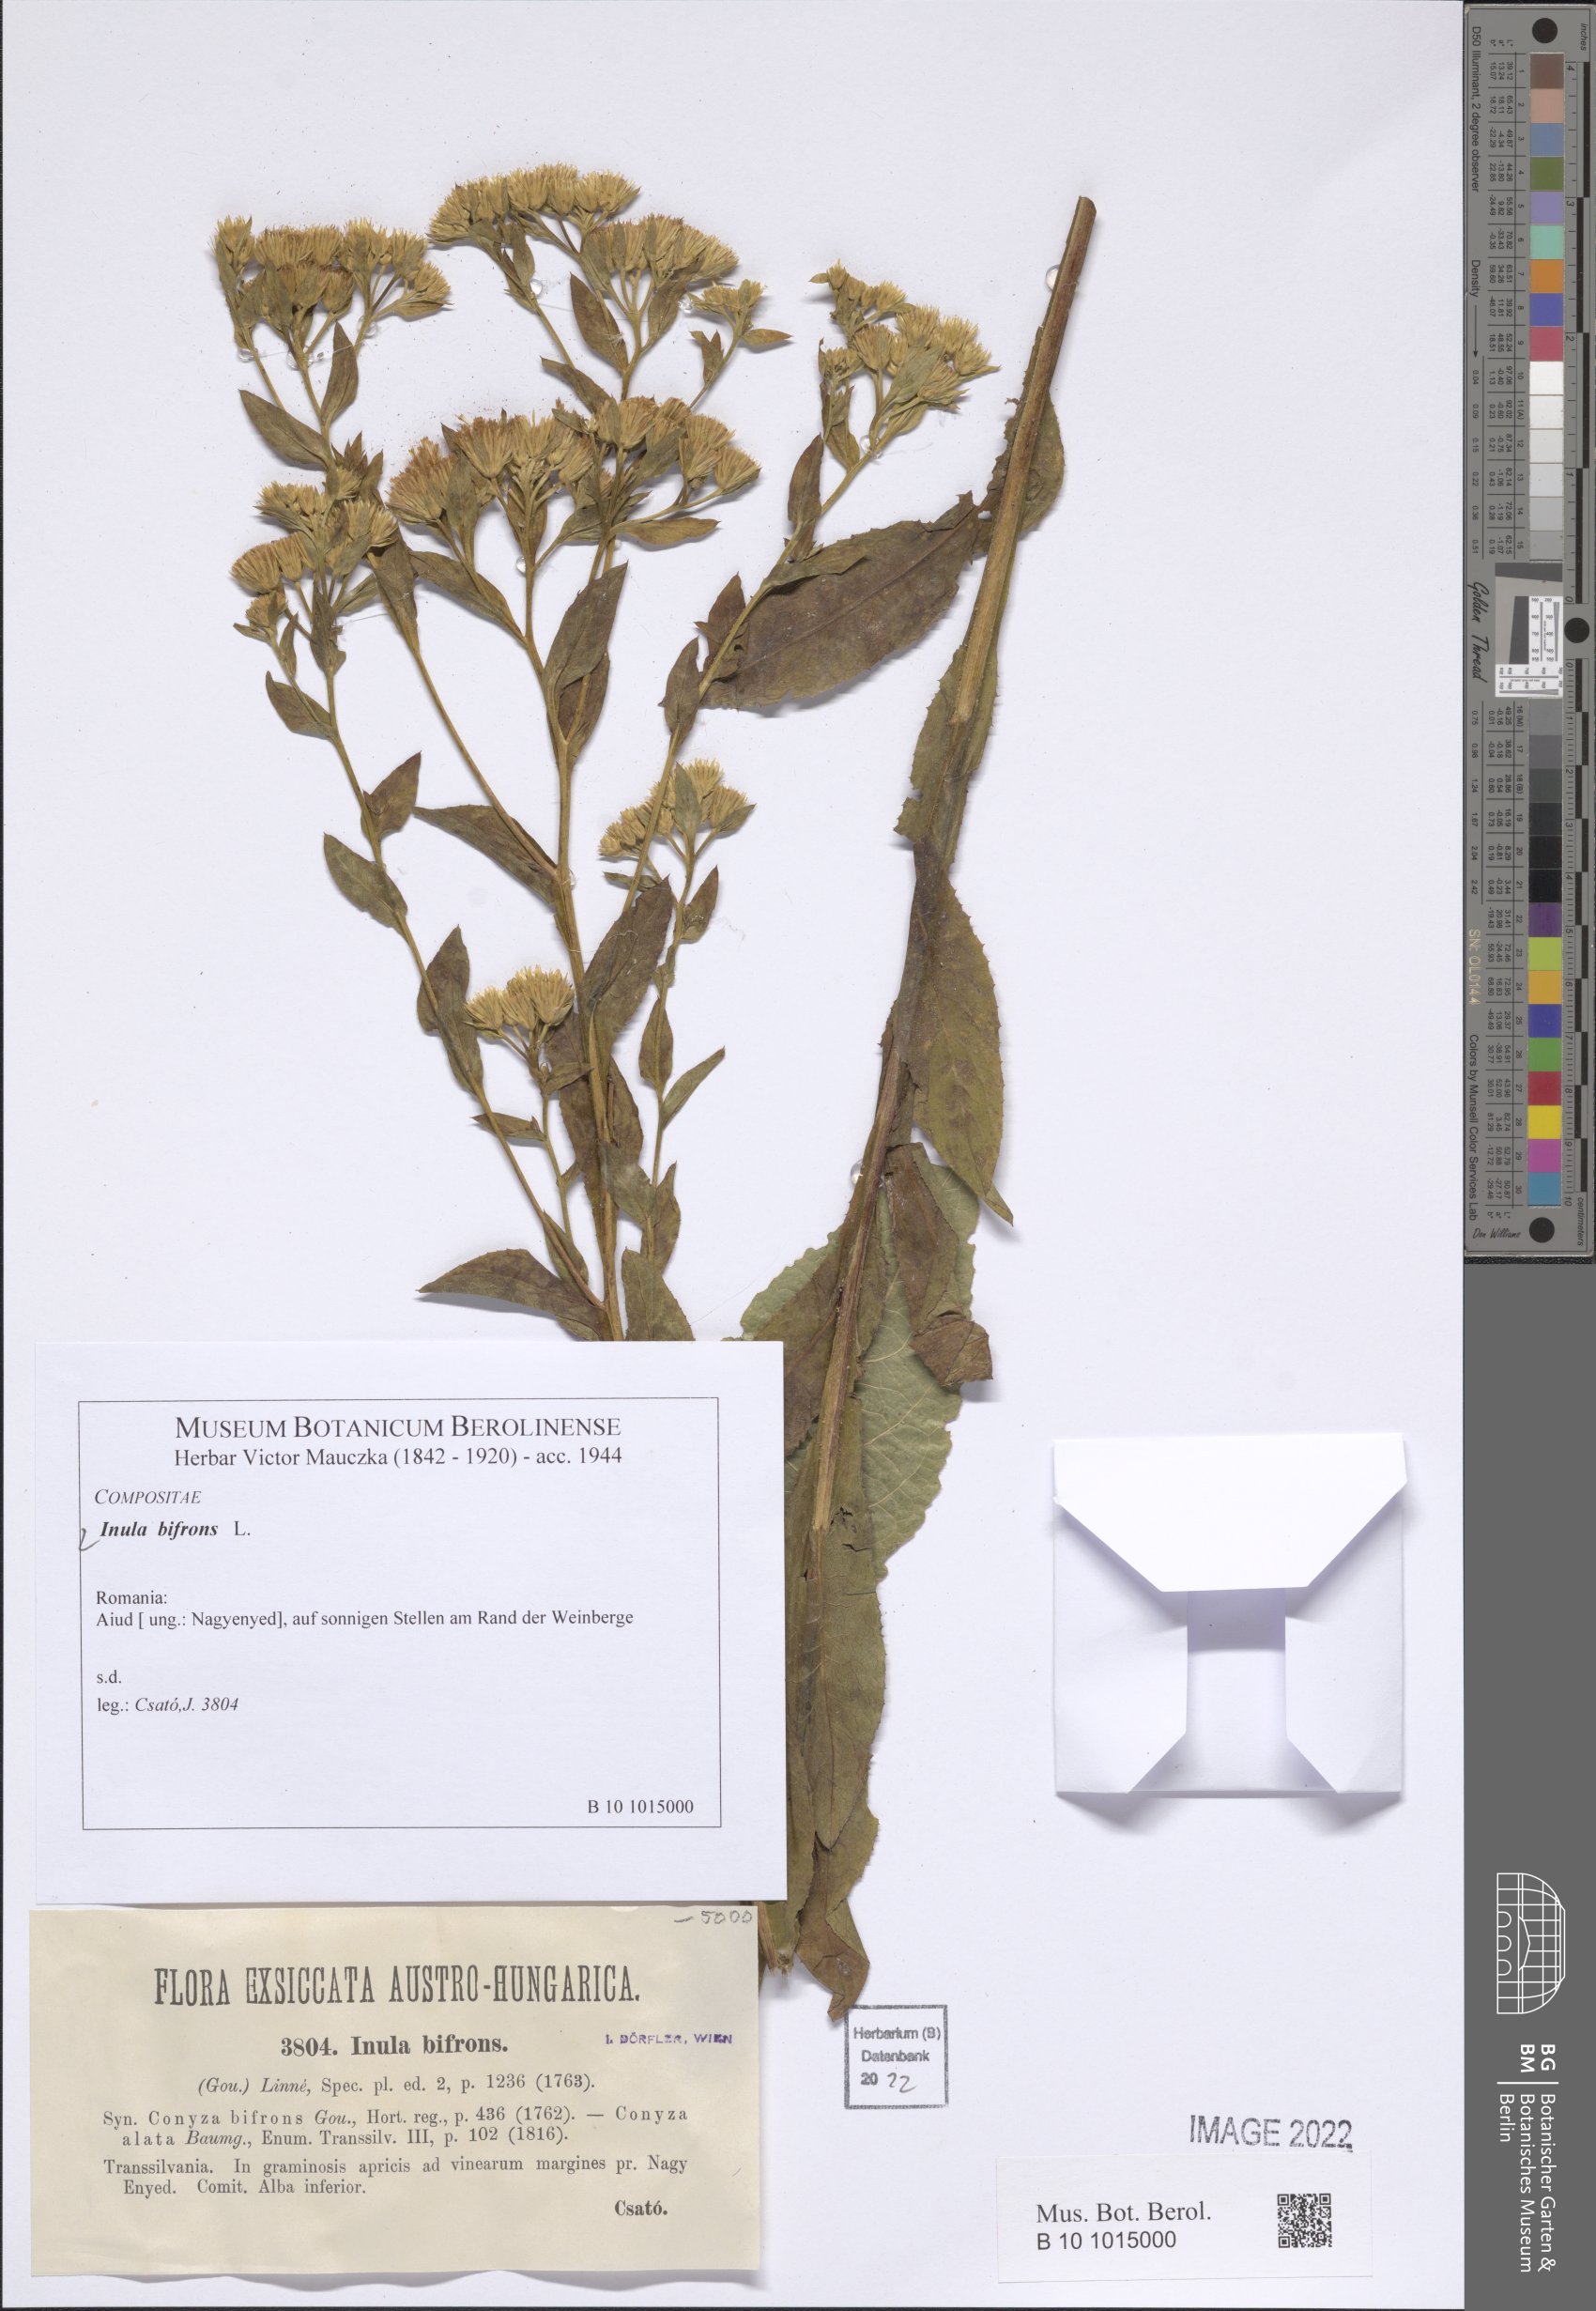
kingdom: Plantae
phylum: Tracheophyta
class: Magnoliopsida
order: Asterales
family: Asteraceae
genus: Pentanema
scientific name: Pentanema bifrons
